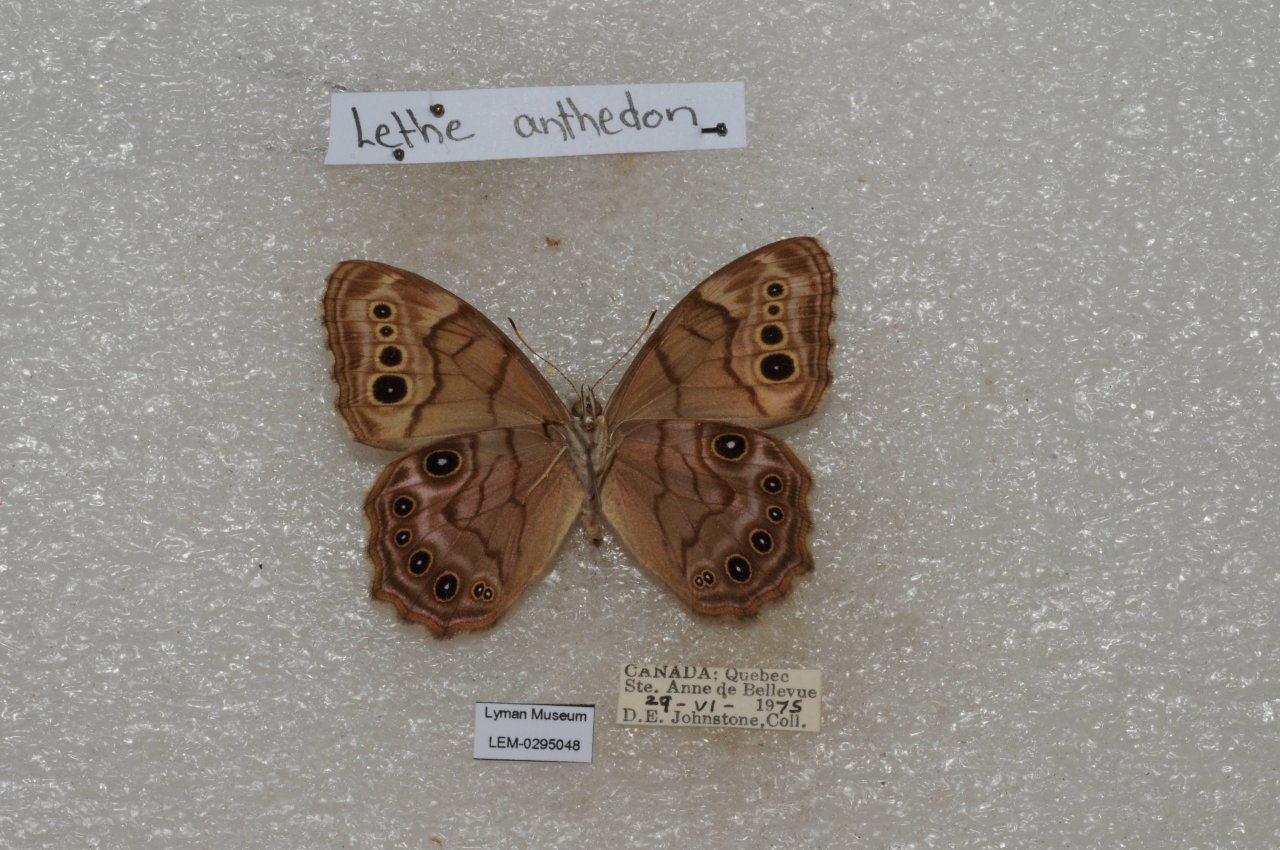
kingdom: Animalia
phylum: Arthropoda
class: Insecta
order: Lepidoptera
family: Nymphalidae
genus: Lethe
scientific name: Lethe anthedon
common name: Northern Pearly-Eye
